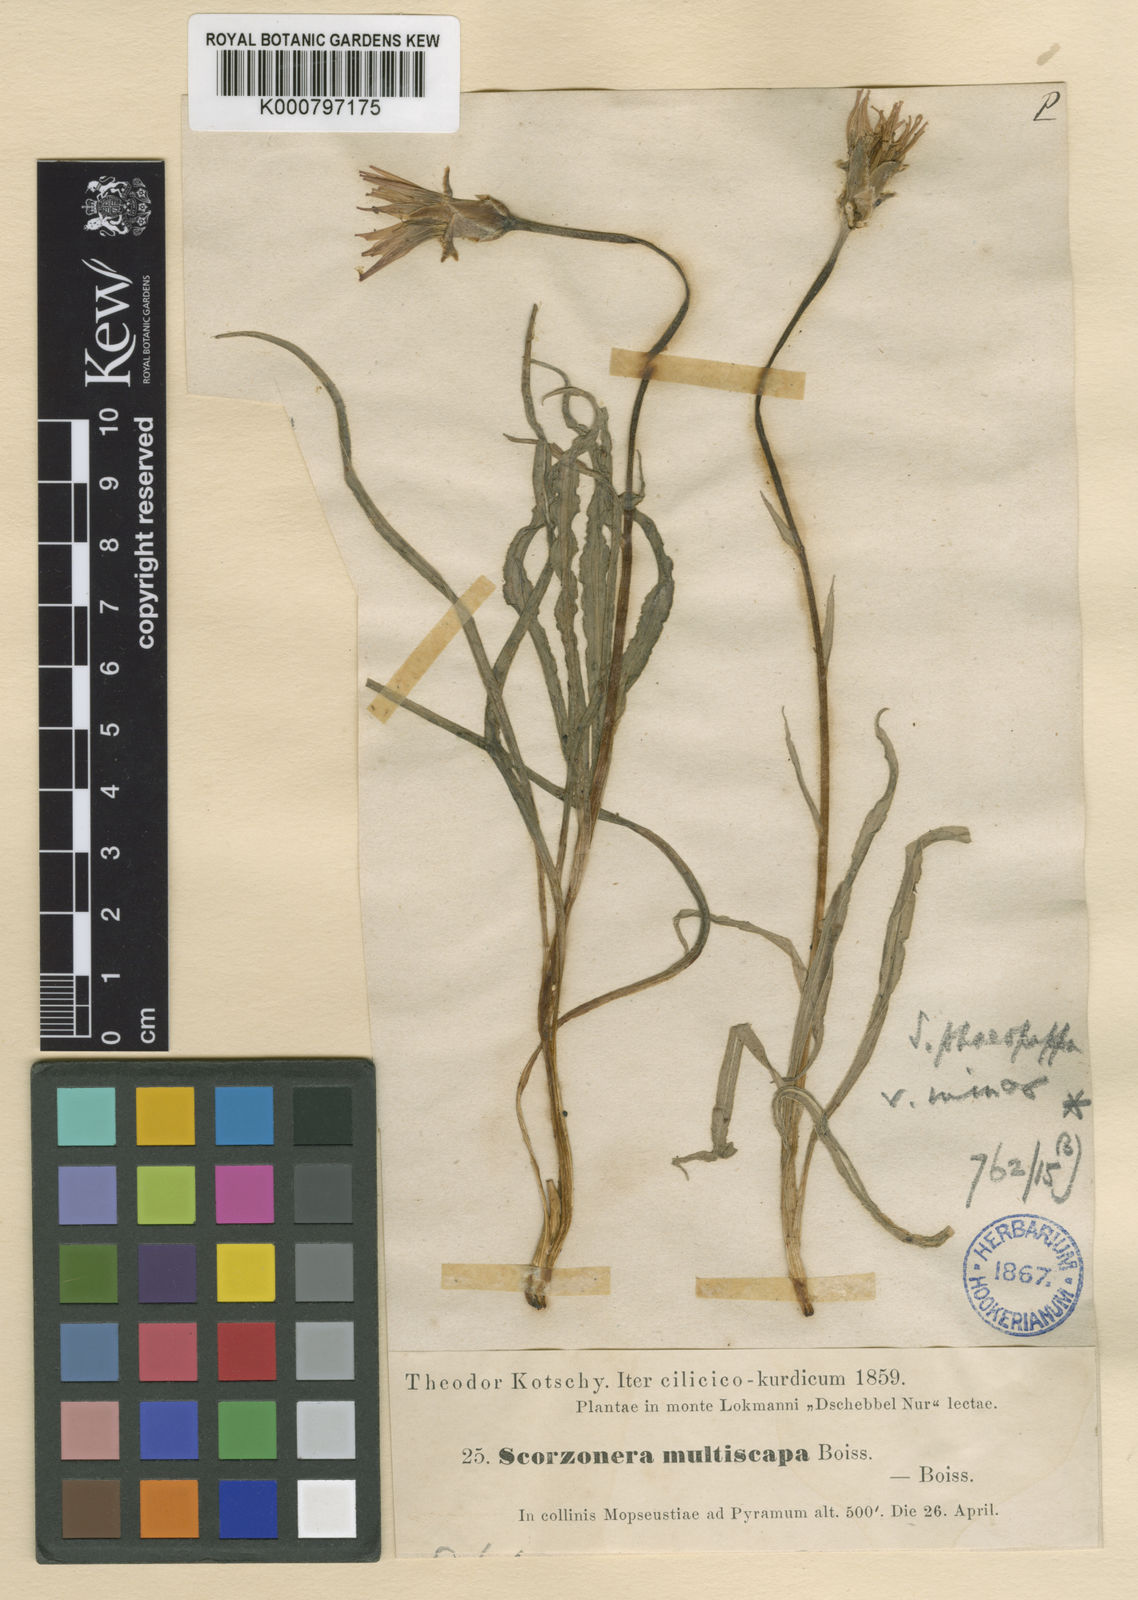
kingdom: Plantae
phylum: Tracheophyta
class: Magnoliopsida
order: Asterales
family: Asteraceae
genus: Pseudopodospermum
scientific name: Pseudopodospermum phaeopappum
